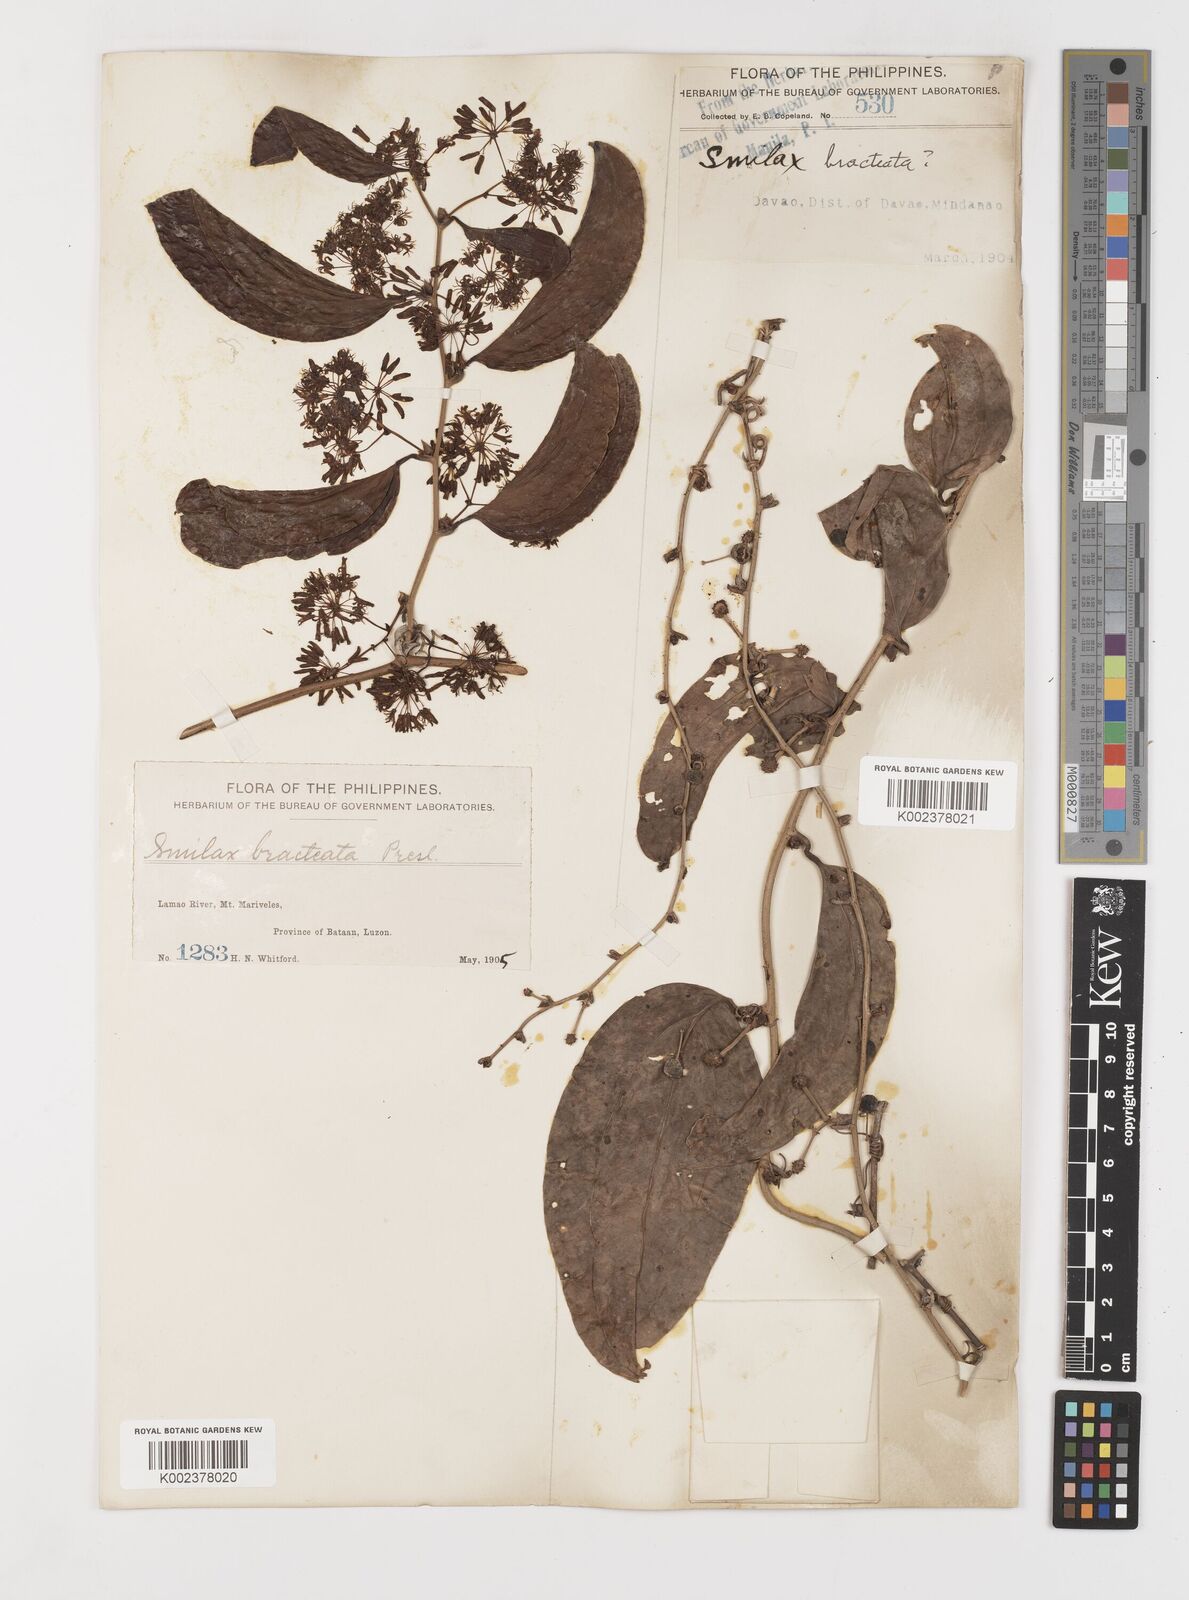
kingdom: Plantae
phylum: Tracheophyta
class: Liliopsida
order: Liliales
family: Smilacaceae
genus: Smilax
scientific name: Smilax bracteata
